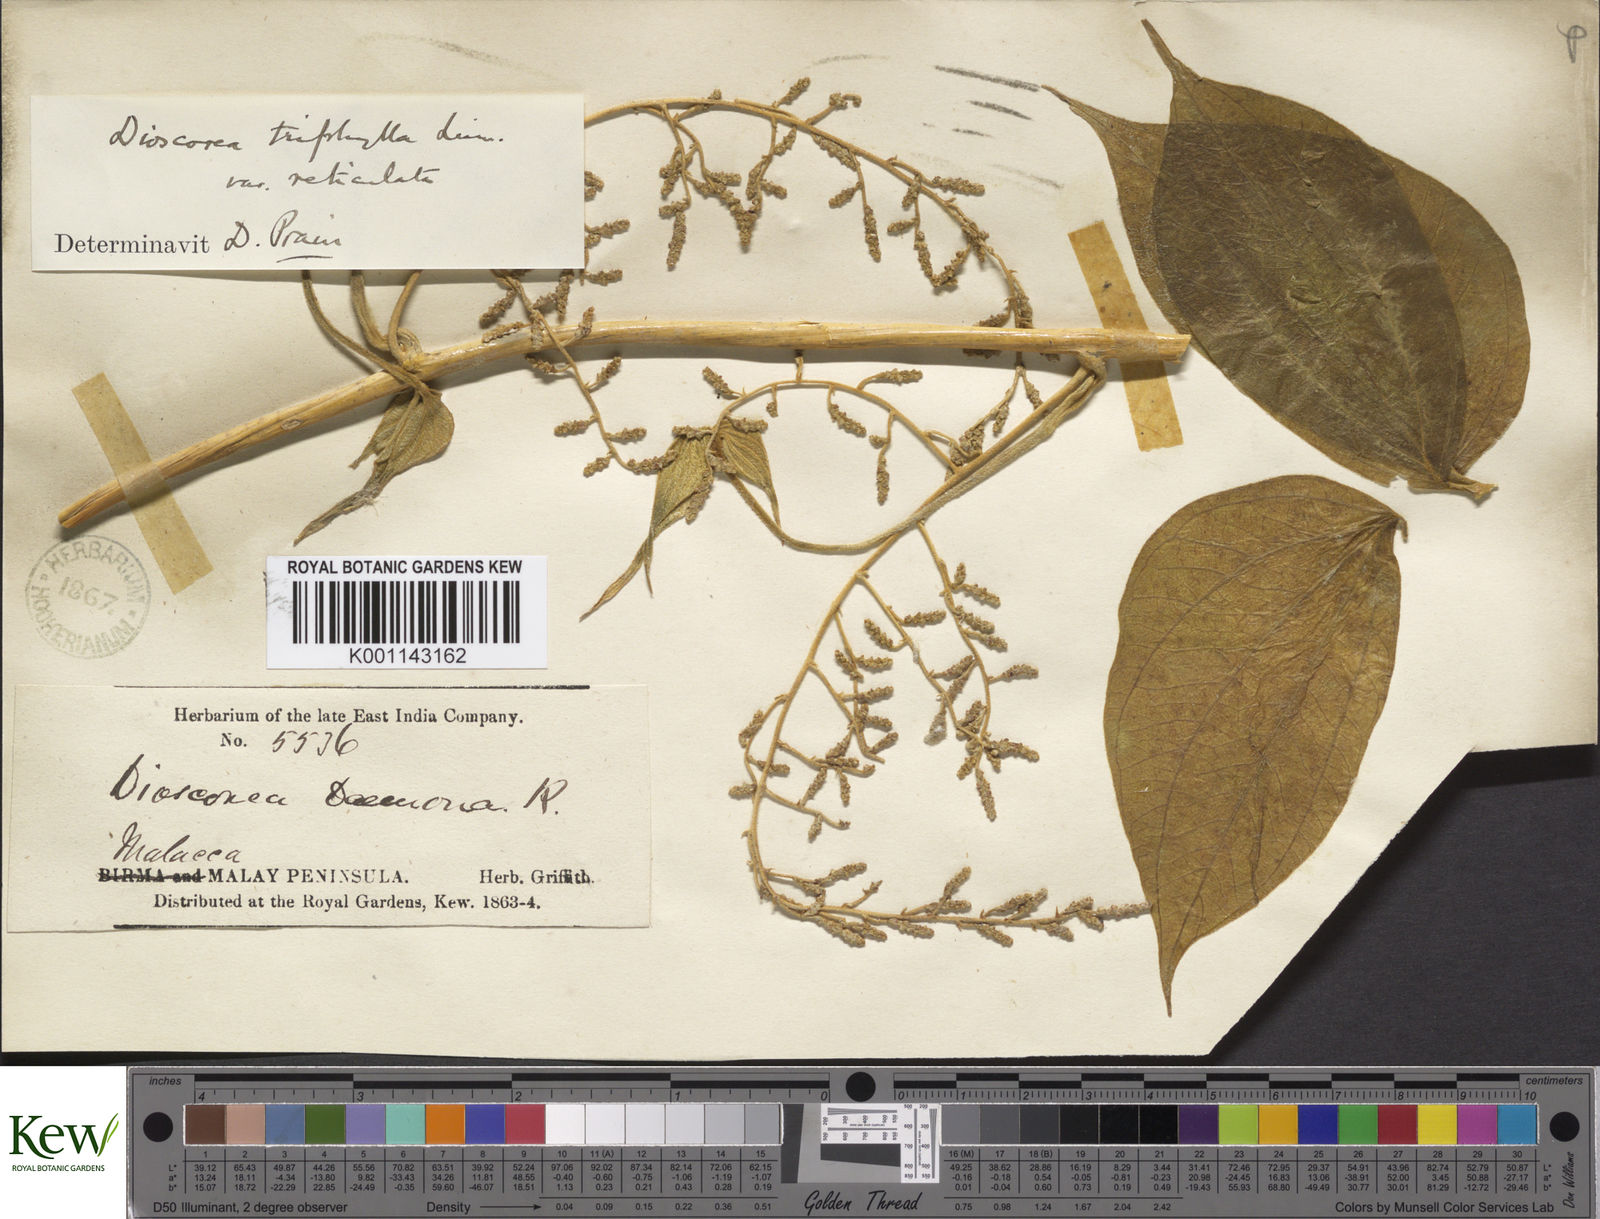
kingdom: Plantae
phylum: Tracheophyta
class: Liliopsida
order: Dioscoreales
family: Dioscoreaceae
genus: Dioscorea
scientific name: Dioscorea hispida
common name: Asiatic bitter yam
